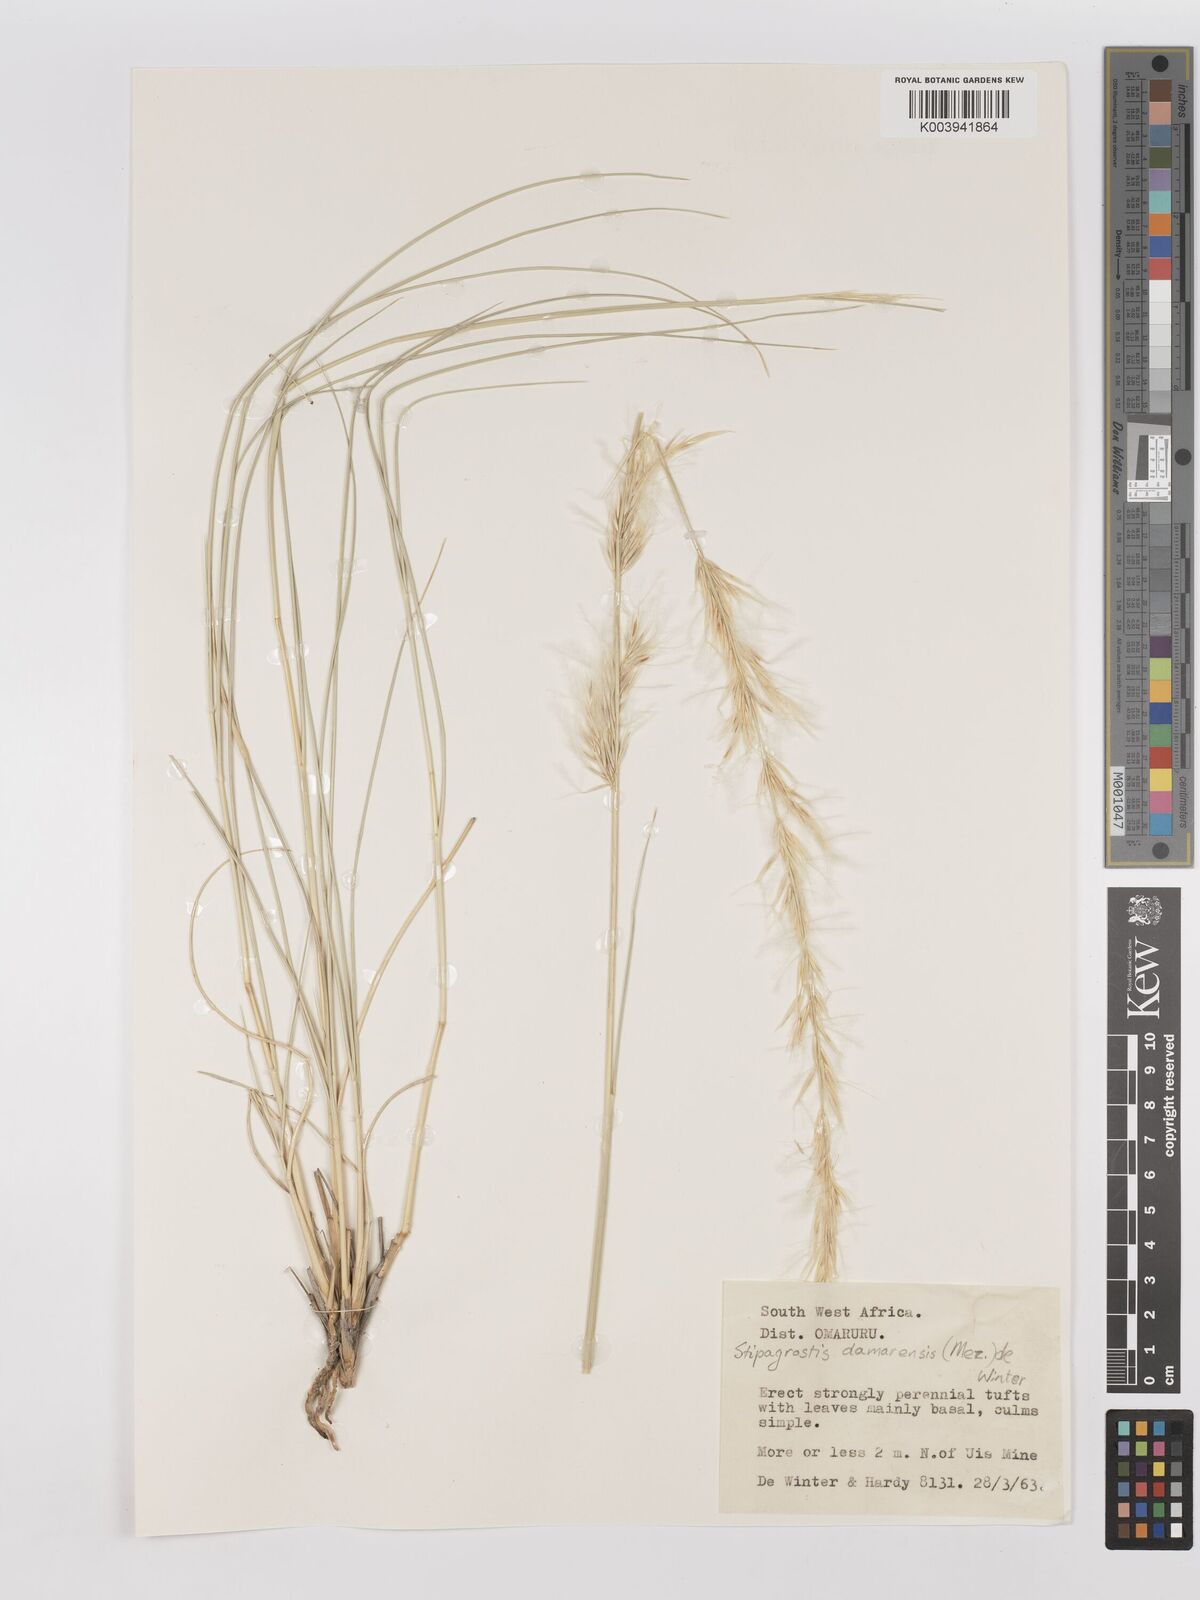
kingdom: Plantae
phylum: Tracheophyta
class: Liliopsida
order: Poales
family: Poaceae
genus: Stipagrostis
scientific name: Stipagrostis damarensis
